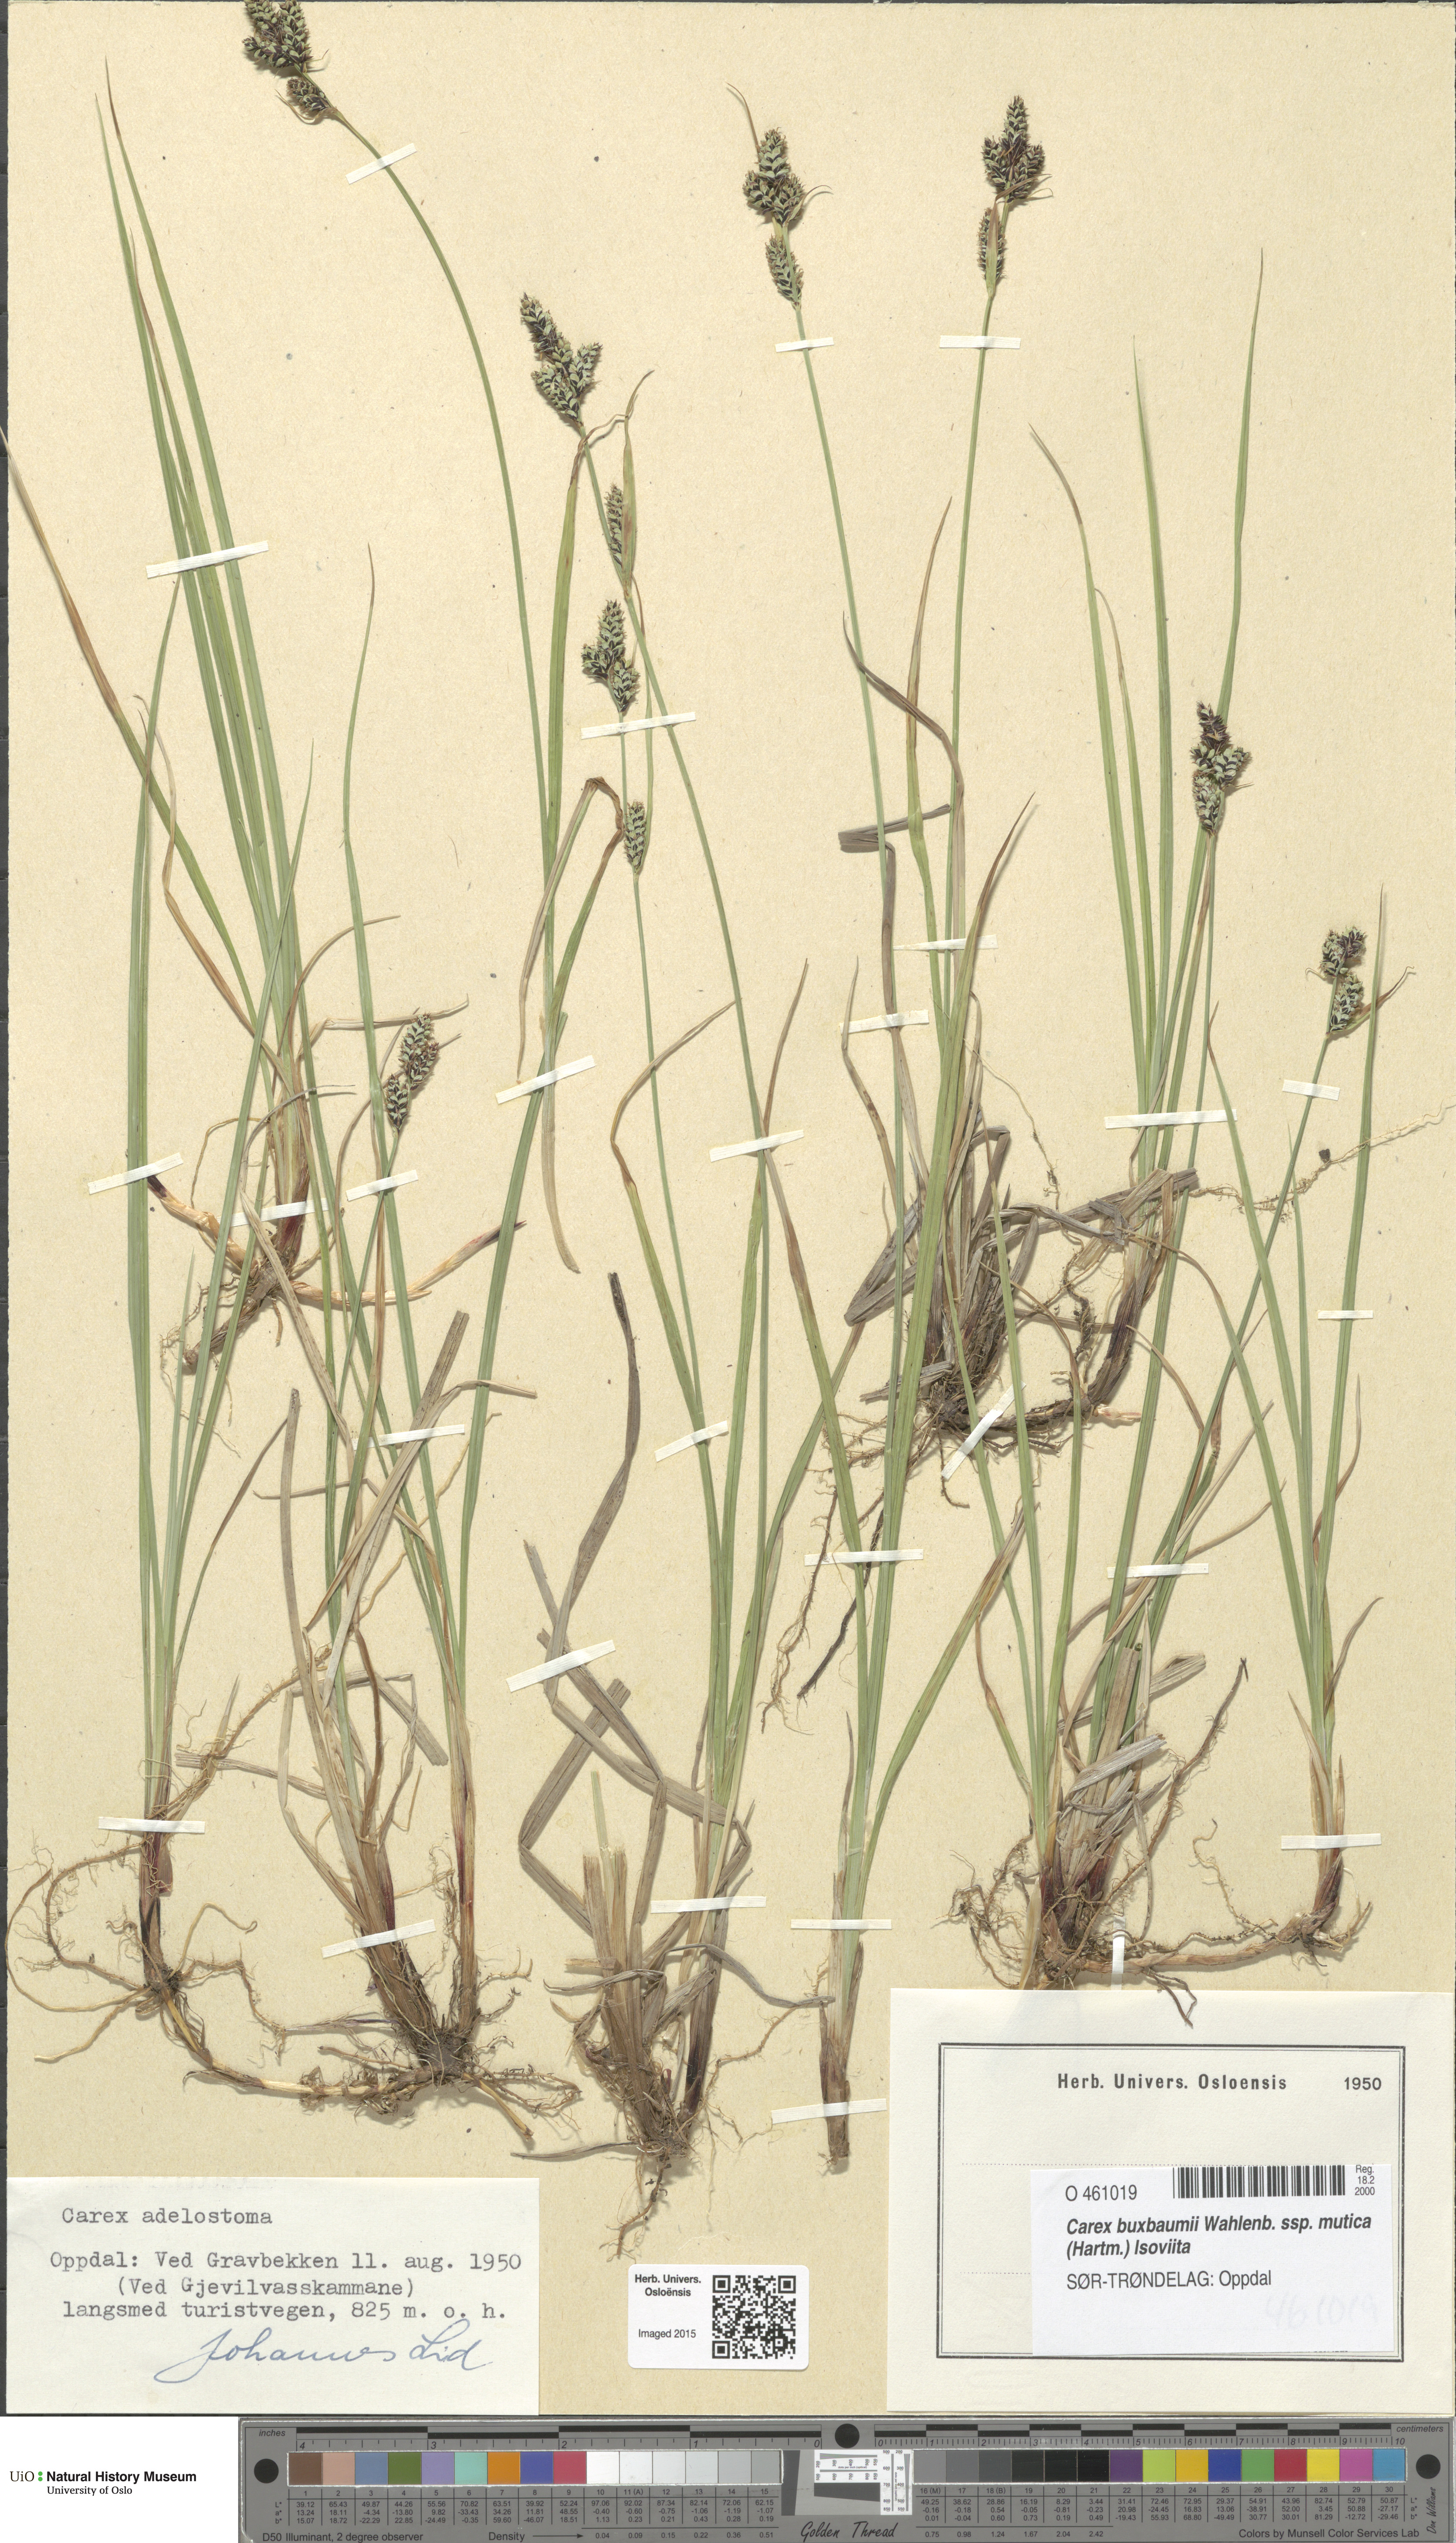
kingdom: Plantae
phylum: Tracheophyta
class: Liliopsida
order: Poales
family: Cyperaceae
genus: Carex
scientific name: Carex adelostoma
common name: Circumpolar sedge
